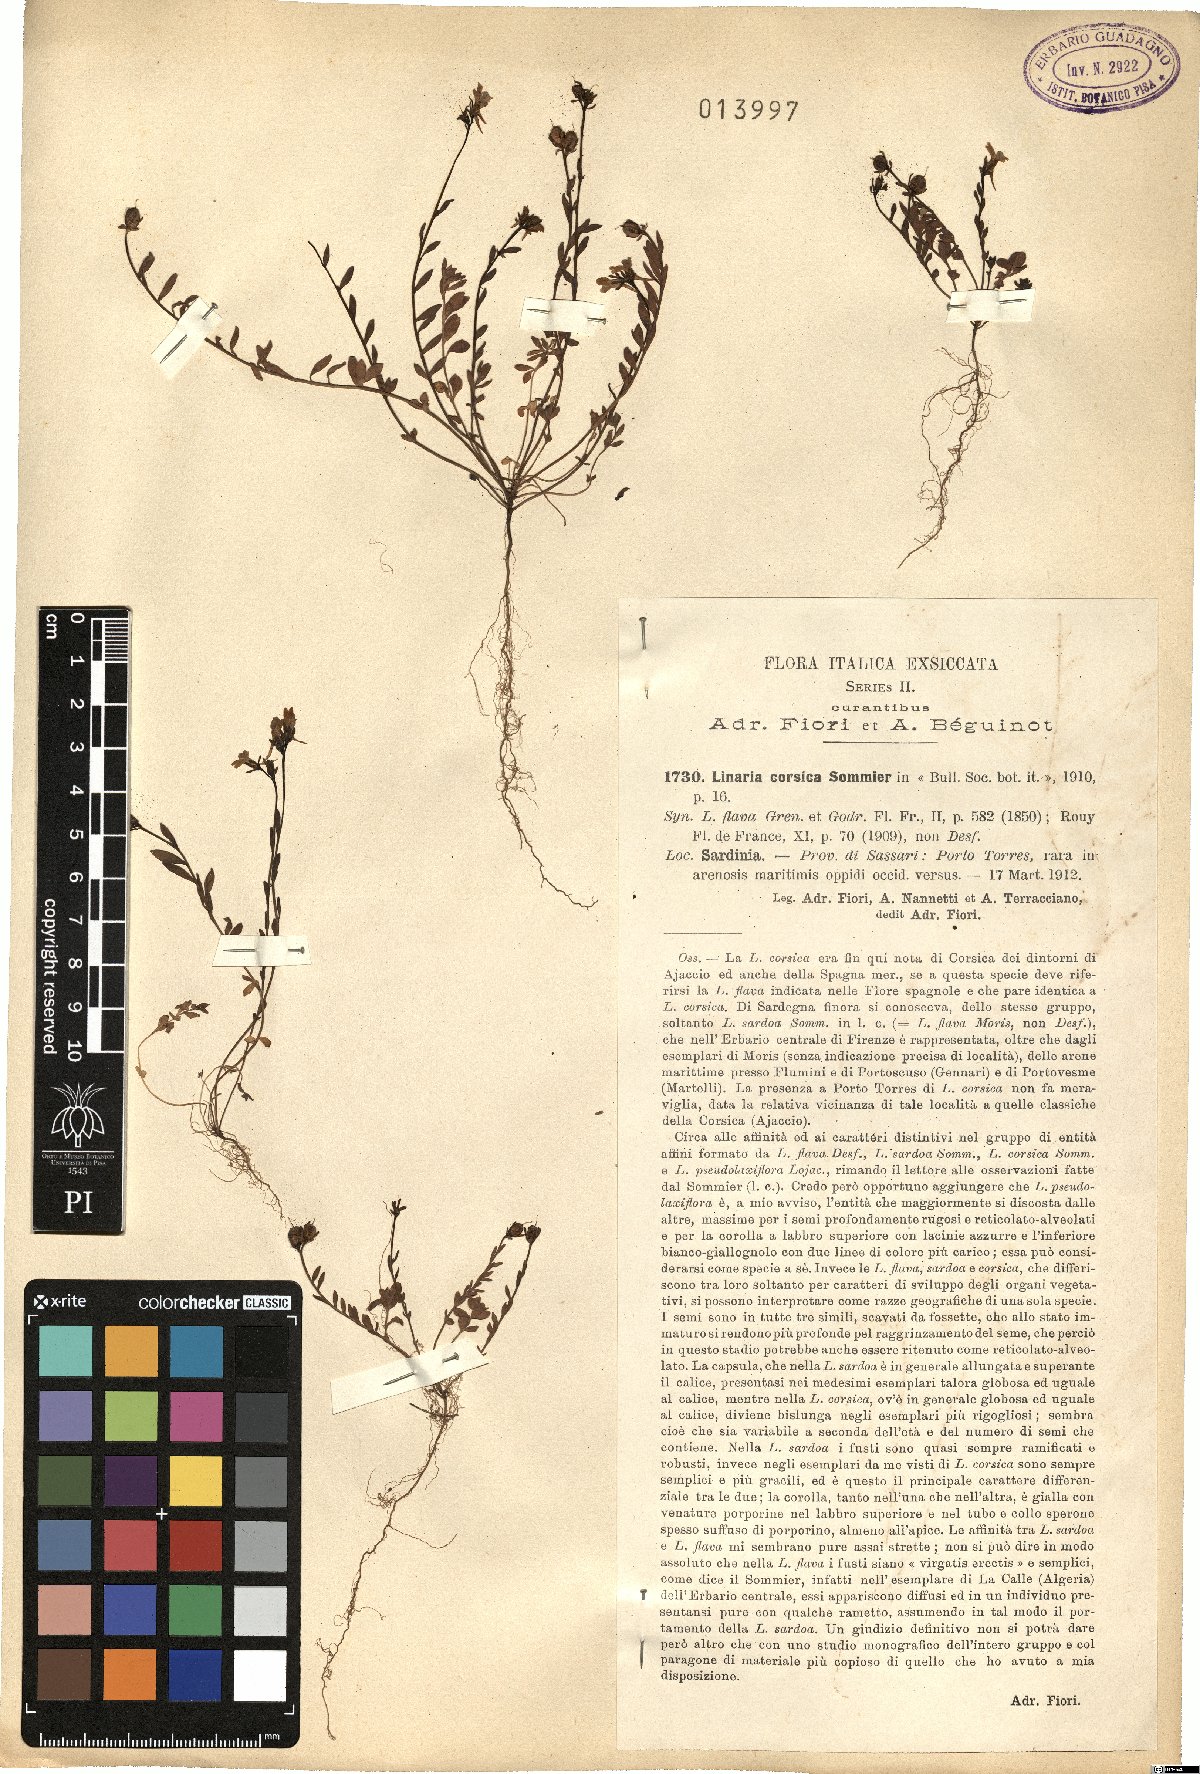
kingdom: Plantae
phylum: Tracheophyta
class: Magnoliopsida
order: Lamiales
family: Plantaginaceae
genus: Linaria
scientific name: Linaria flava
